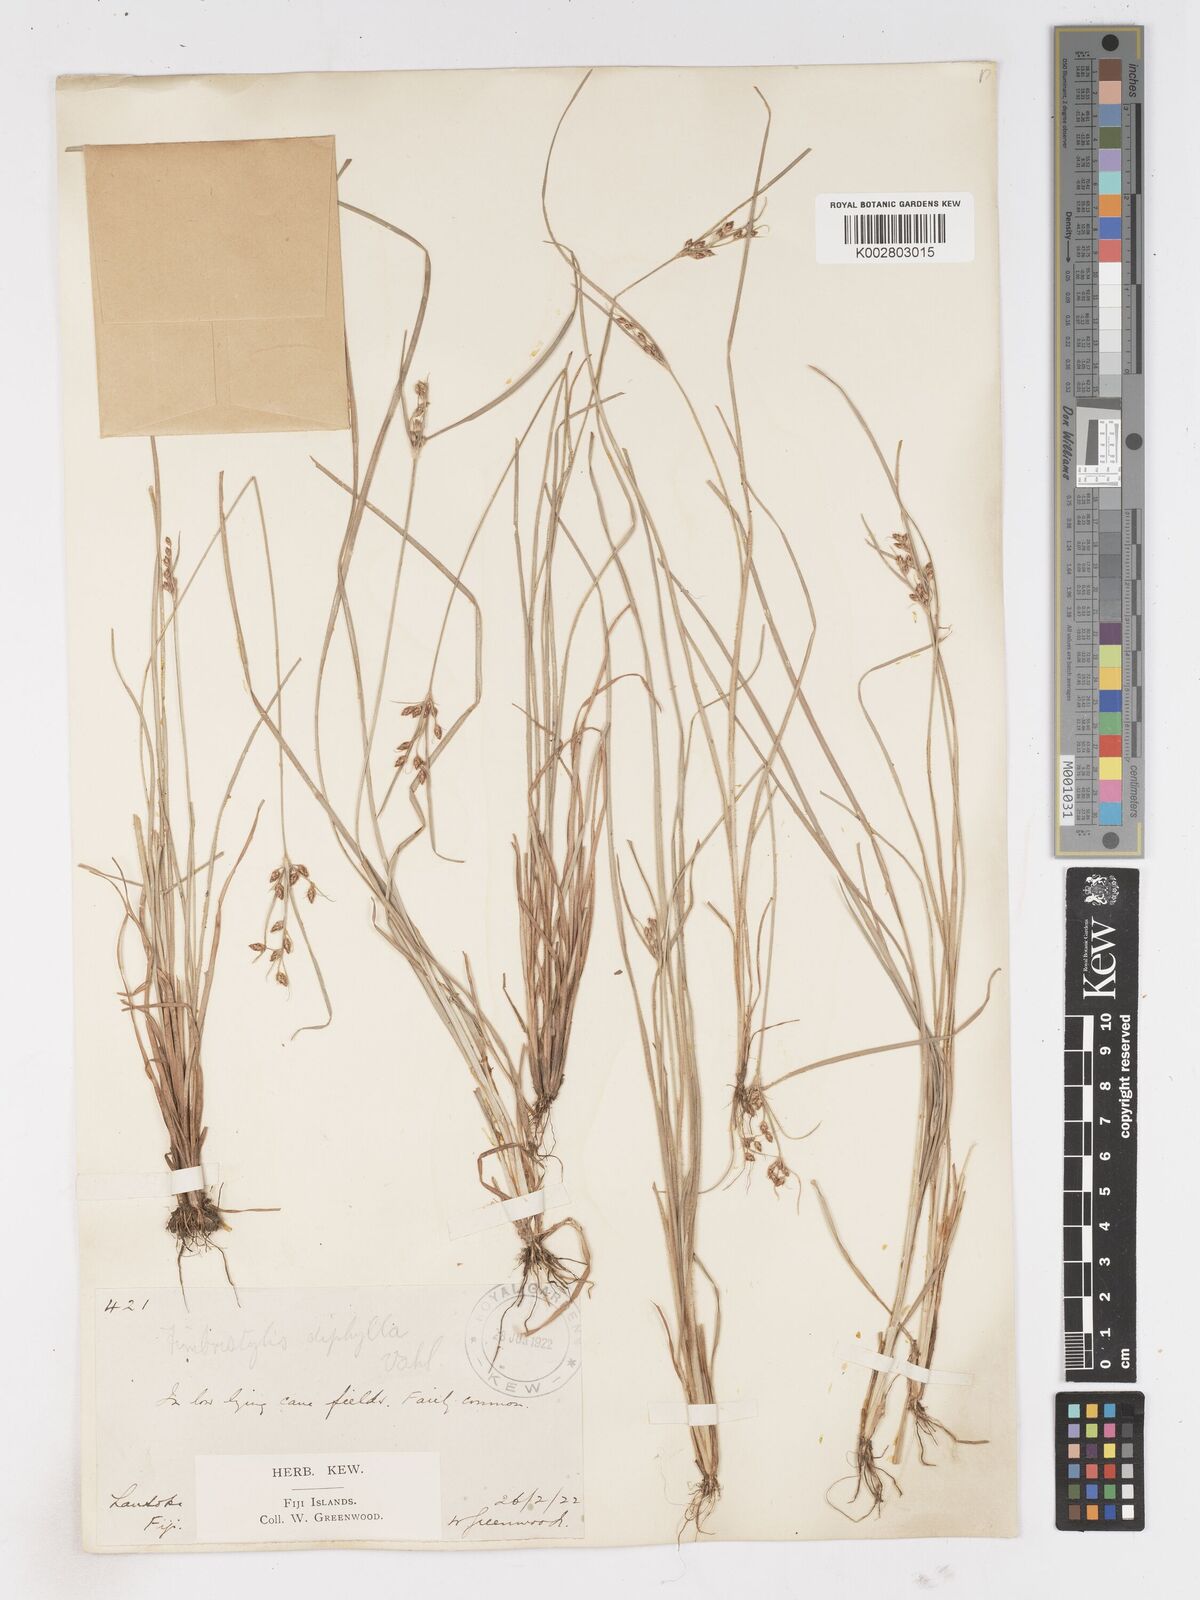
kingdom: Plantae
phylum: Tracheophyta
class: Liliopsida
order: Poales
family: Cyperaceae
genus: Fimbristylis
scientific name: Fimbristylis dichotoma
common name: Forked fimbry
